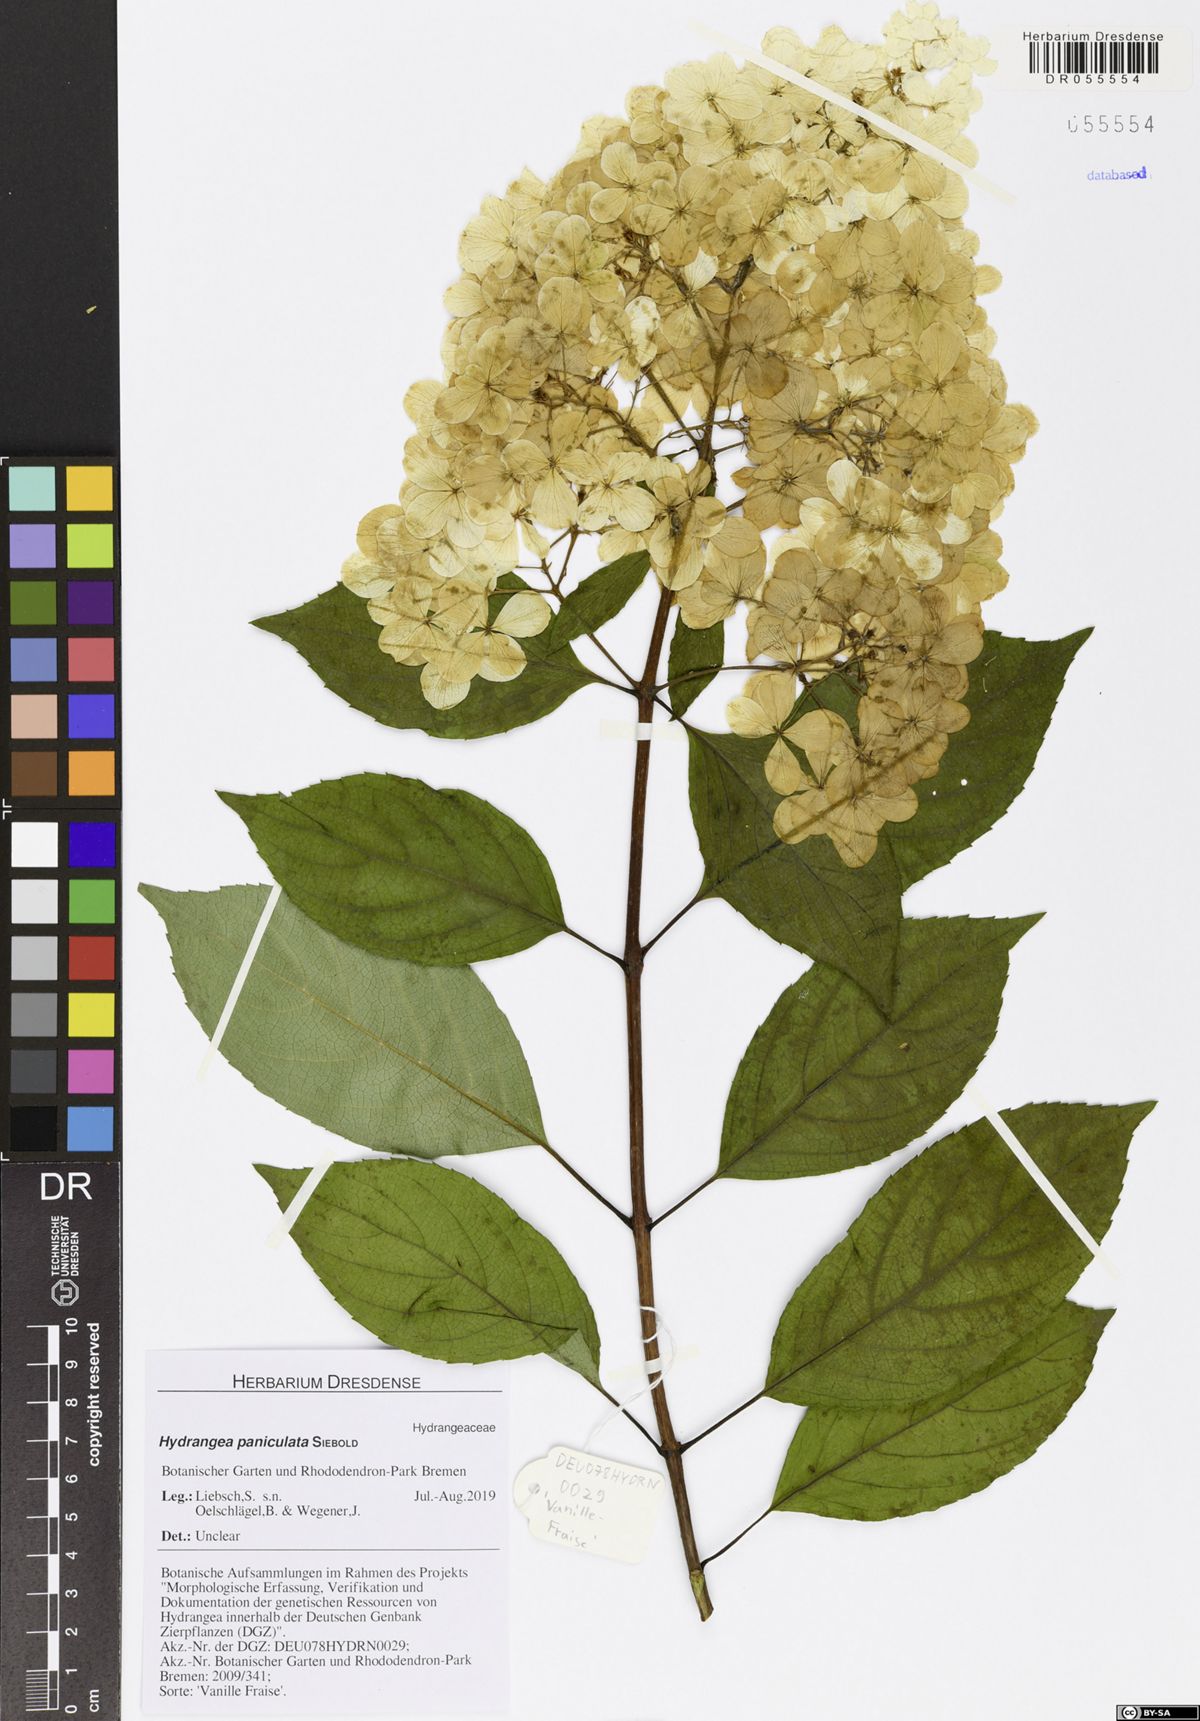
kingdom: Plantae
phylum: Tracheophyta
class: Magnoliopsida
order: Cornales
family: Hydrangeaceae
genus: Hydrangea
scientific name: Hydrangea paniculata
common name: Panicled hydrangea
